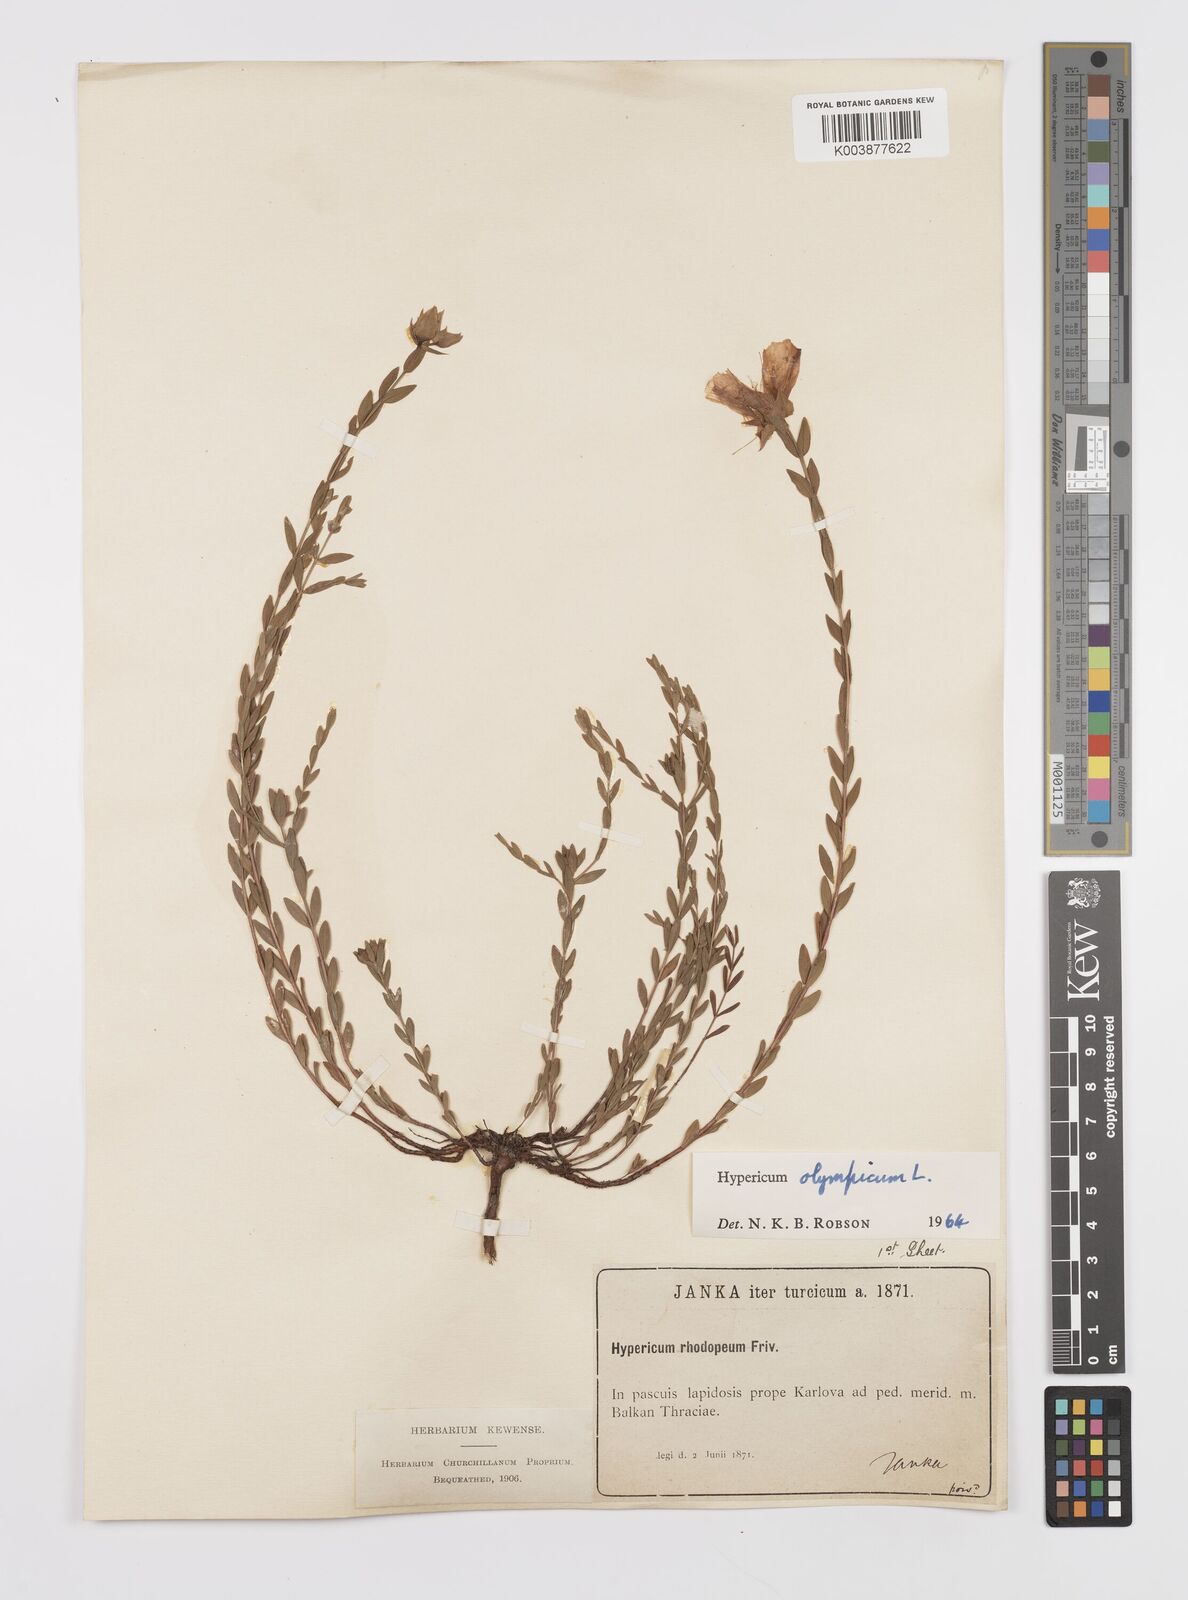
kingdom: Plantae
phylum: Tracheophyta
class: Magnoliopsida
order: Malpighiales
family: Hypericaceae
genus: Hypericum
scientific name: Hypericum olympicum
